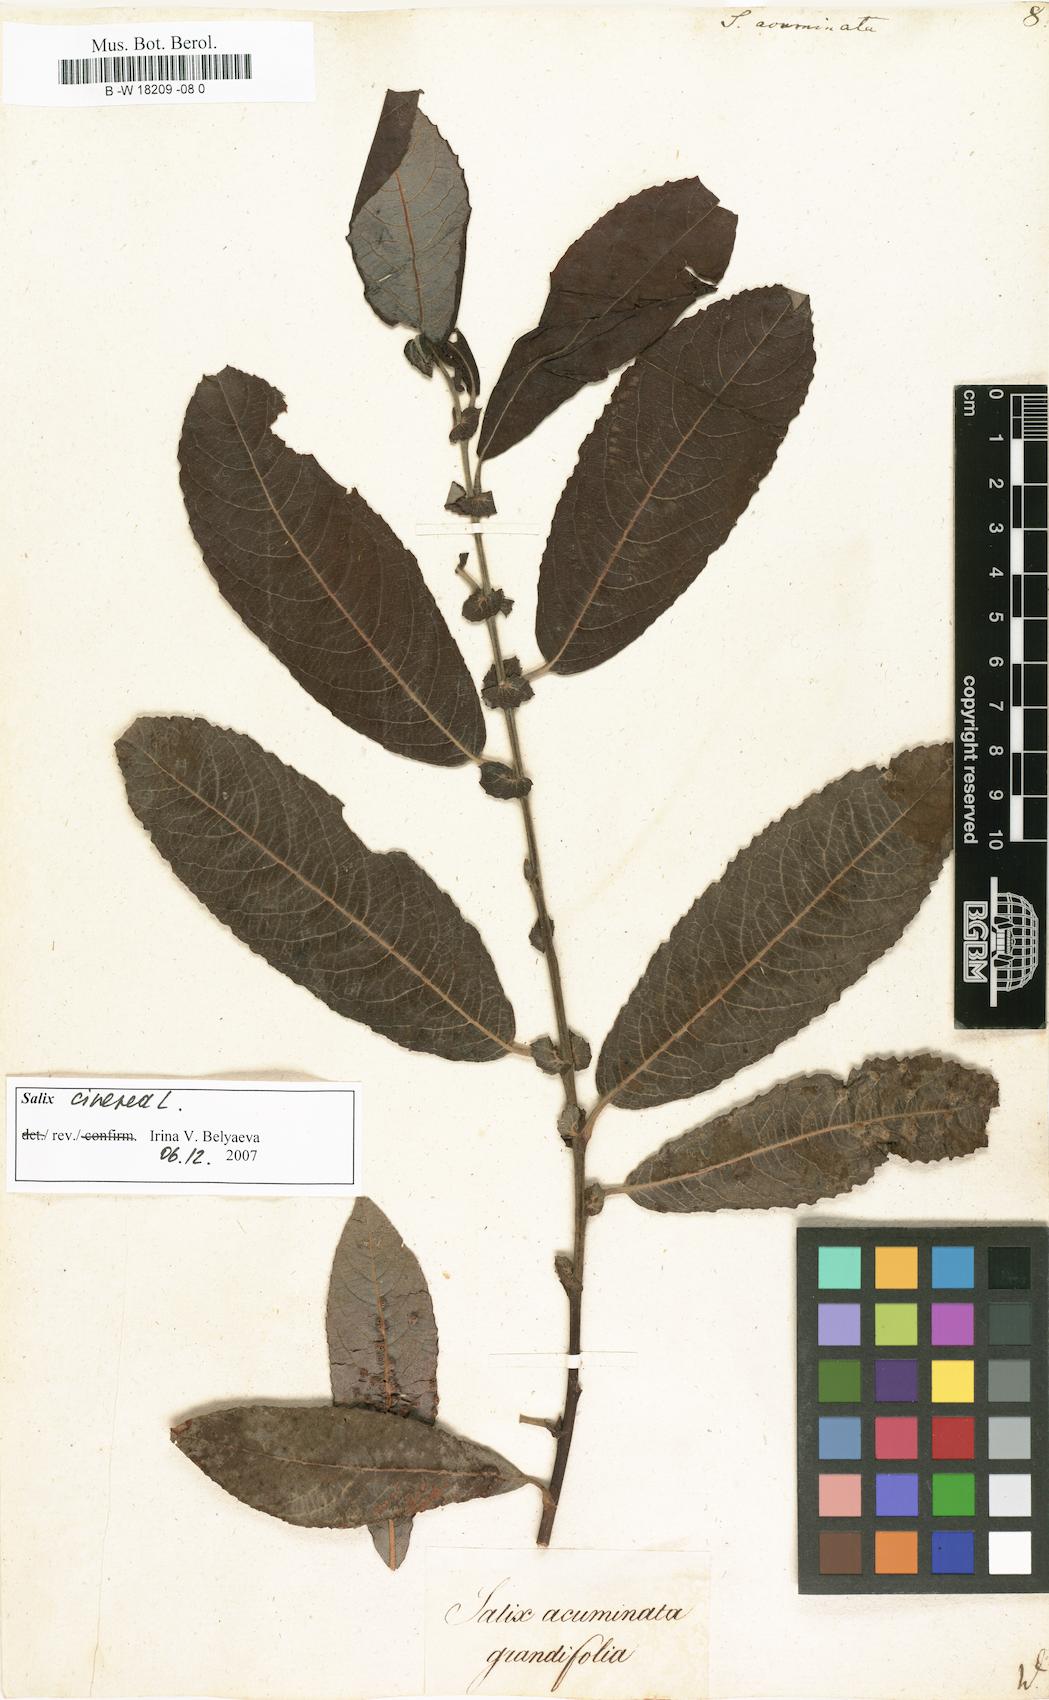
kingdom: Plantae
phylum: Tracheophyta
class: Magnoliopsida
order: Malpighiales
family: Salicaceae
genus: Salix
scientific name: Salix
